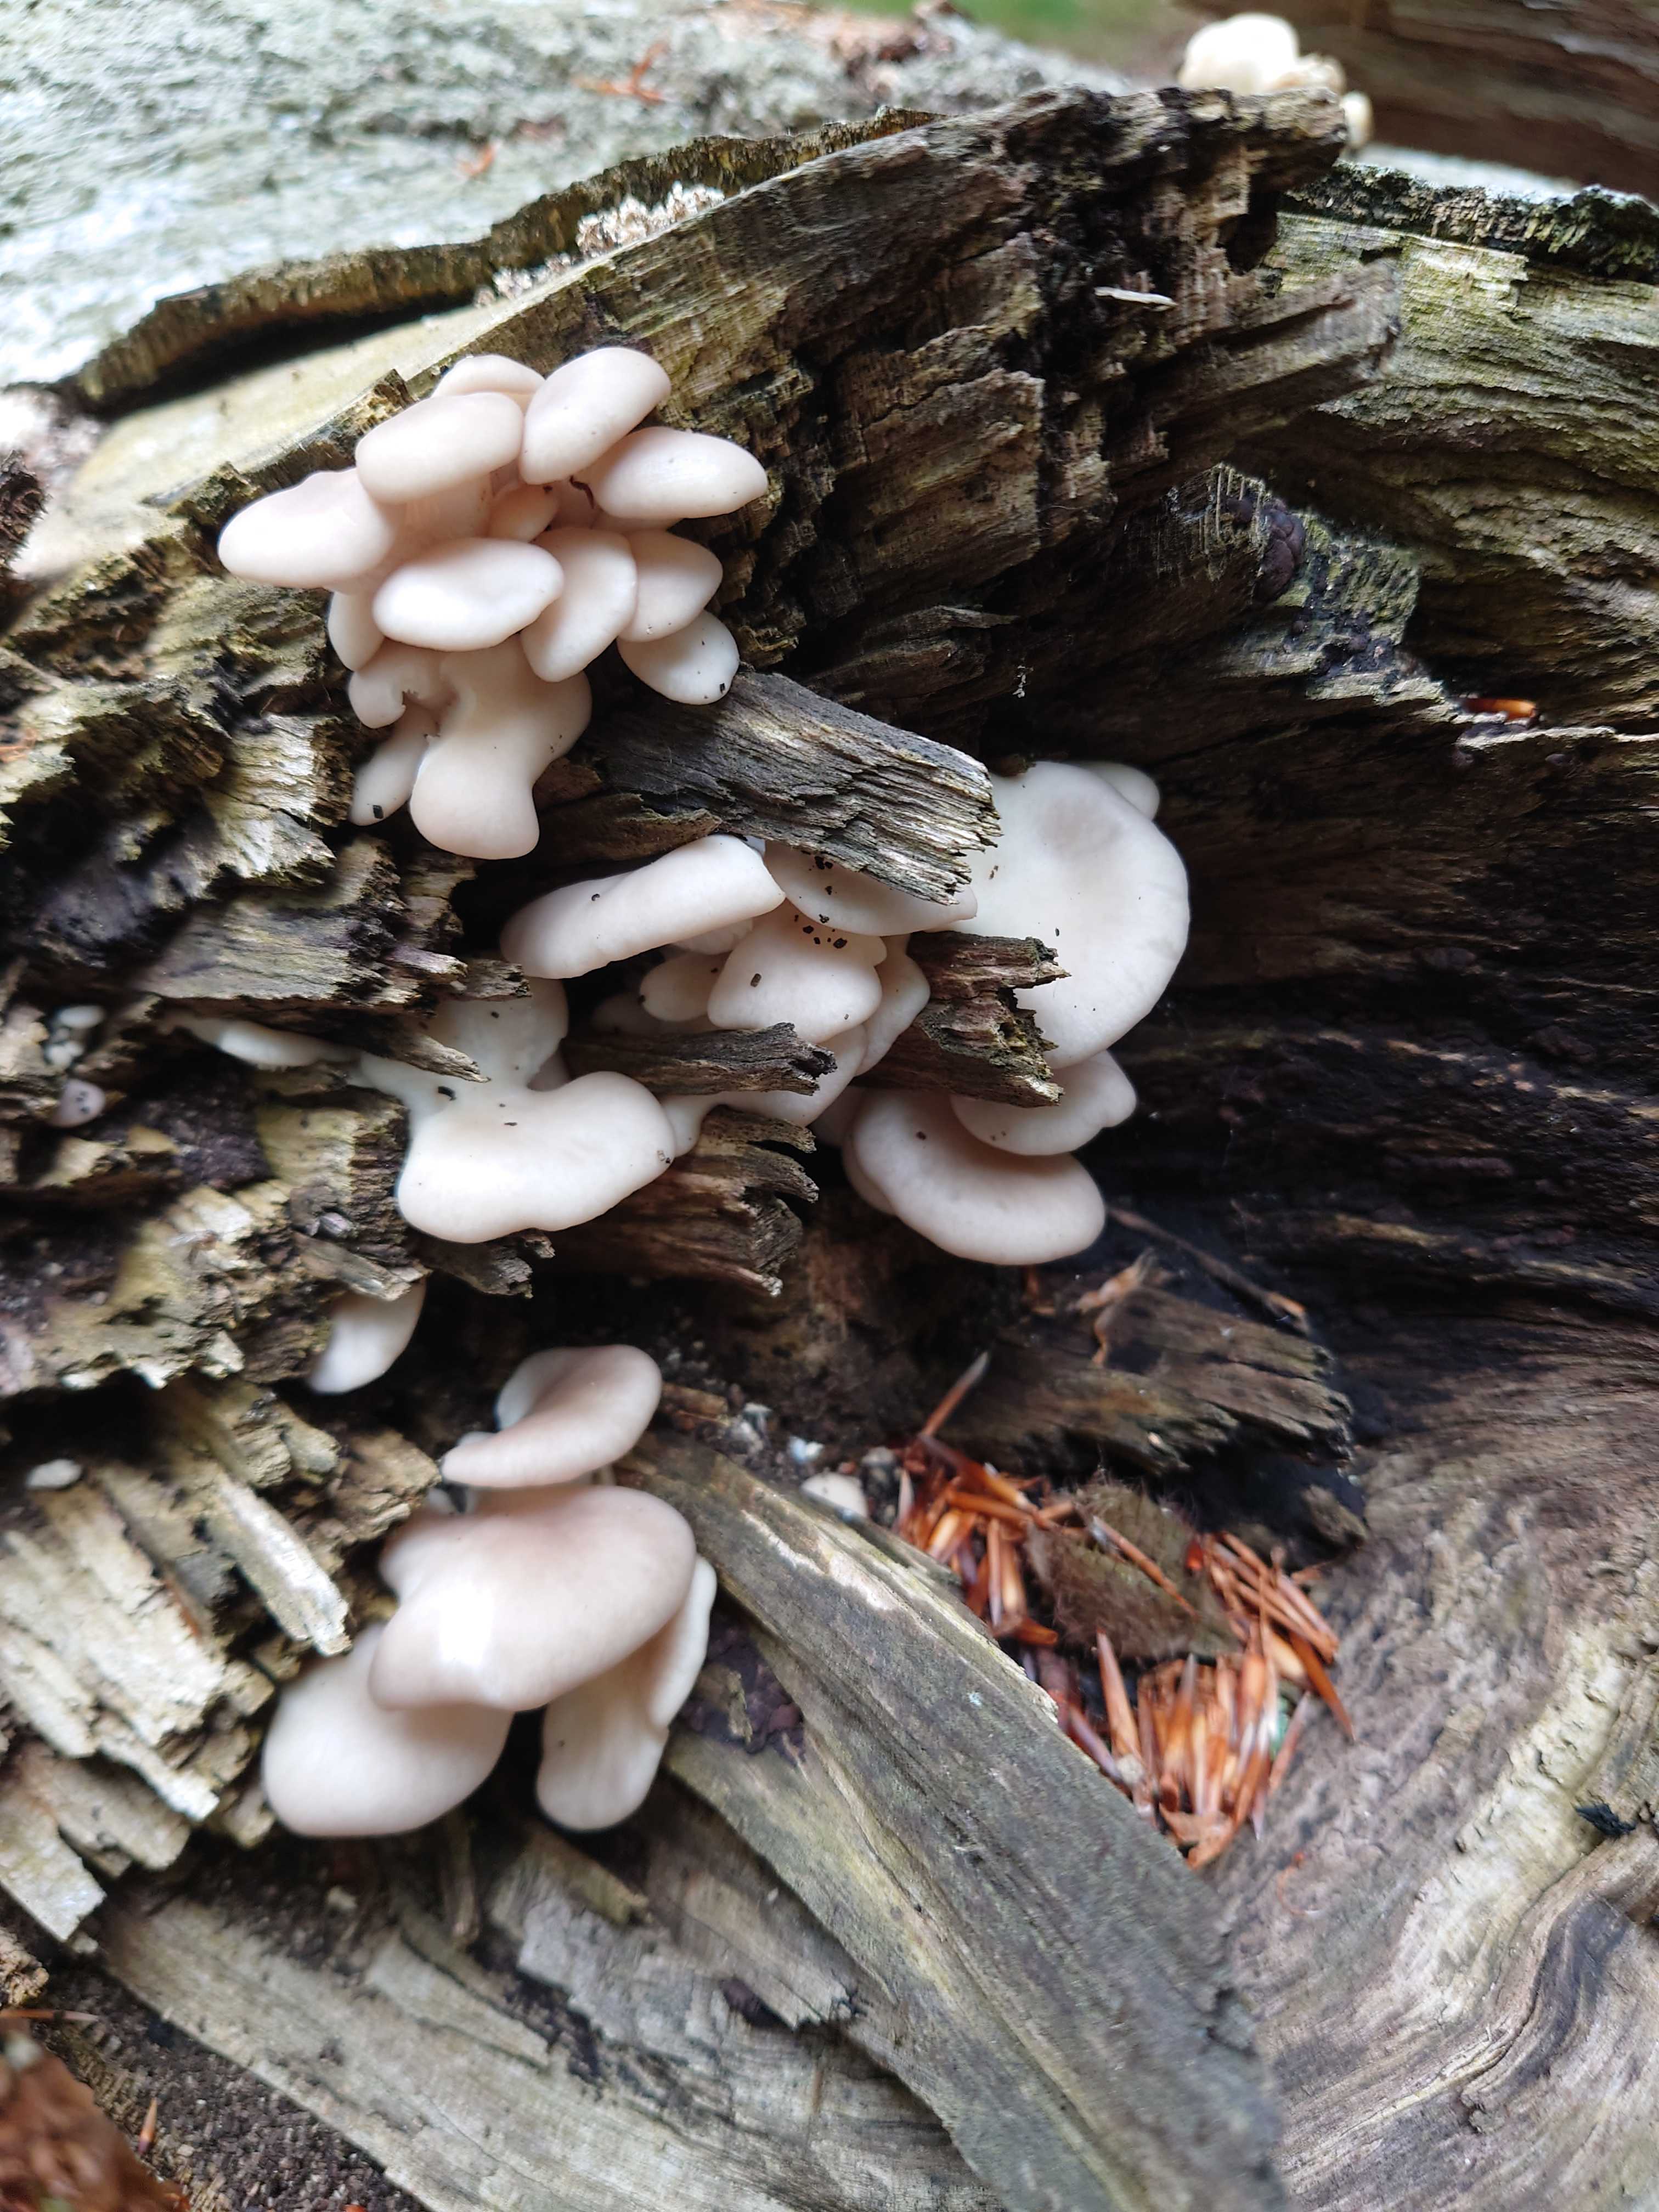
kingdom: Fungi
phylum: Basidiomycota
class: Agaricomycetes
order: Agaricales
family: Pleurotaceae
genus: Pleurotus
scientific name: Pleurotus pulmonarius
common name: sommer-østershat
